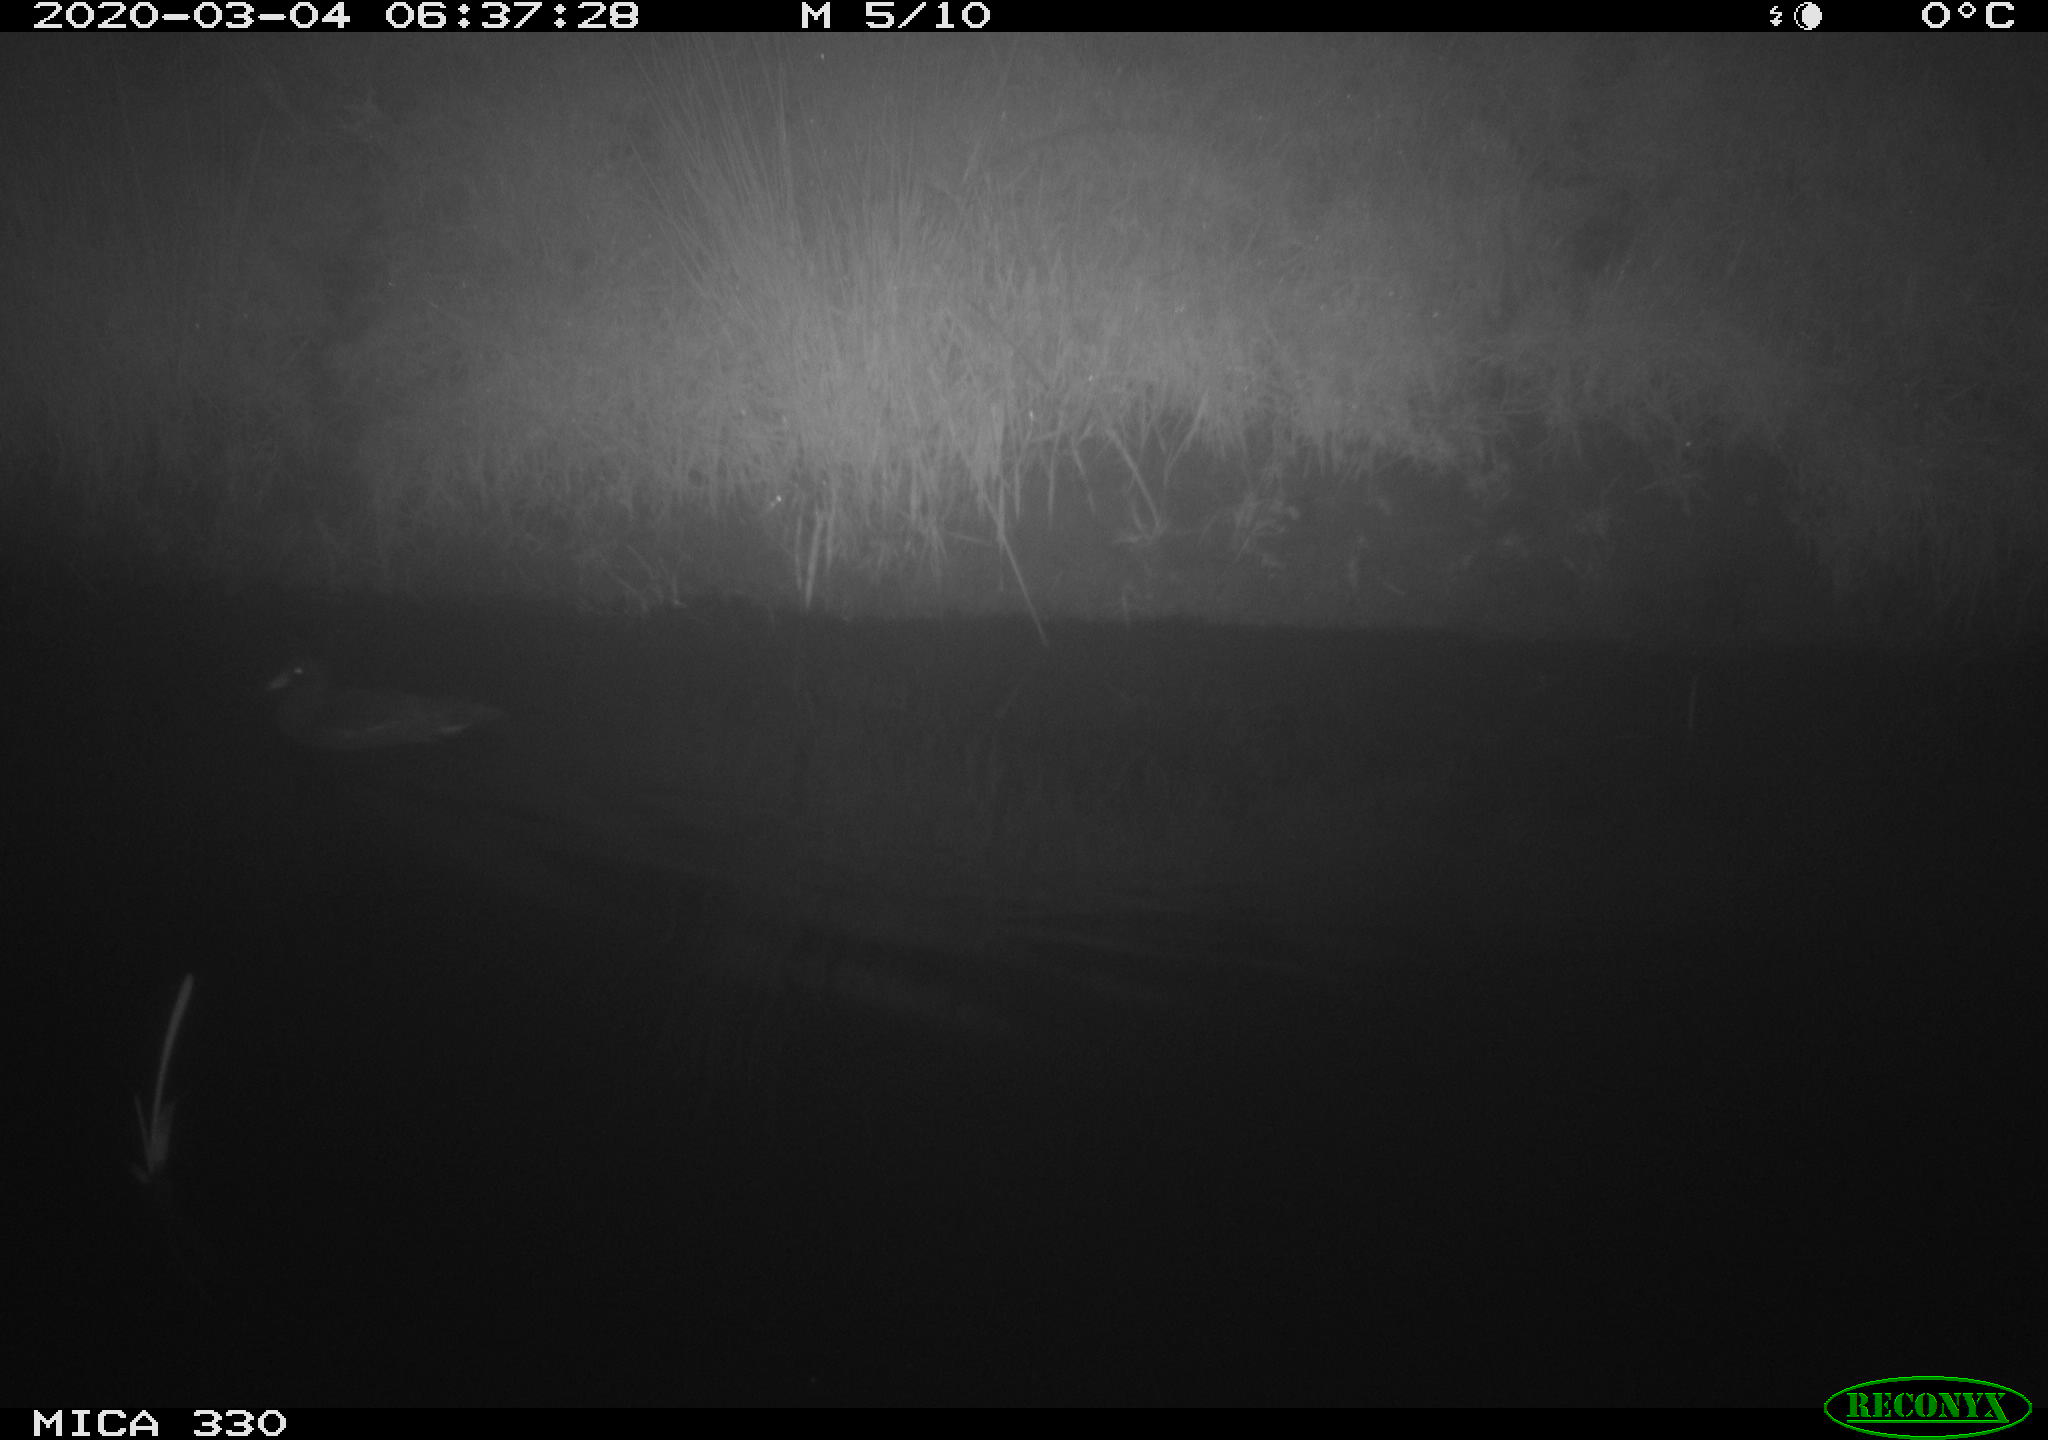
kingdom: Animalia
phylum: Chordata
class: Aves
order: Gruiformes
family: Rallidae
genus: Gallinula
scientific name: Gallinula chloropus
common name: Common moorhen
